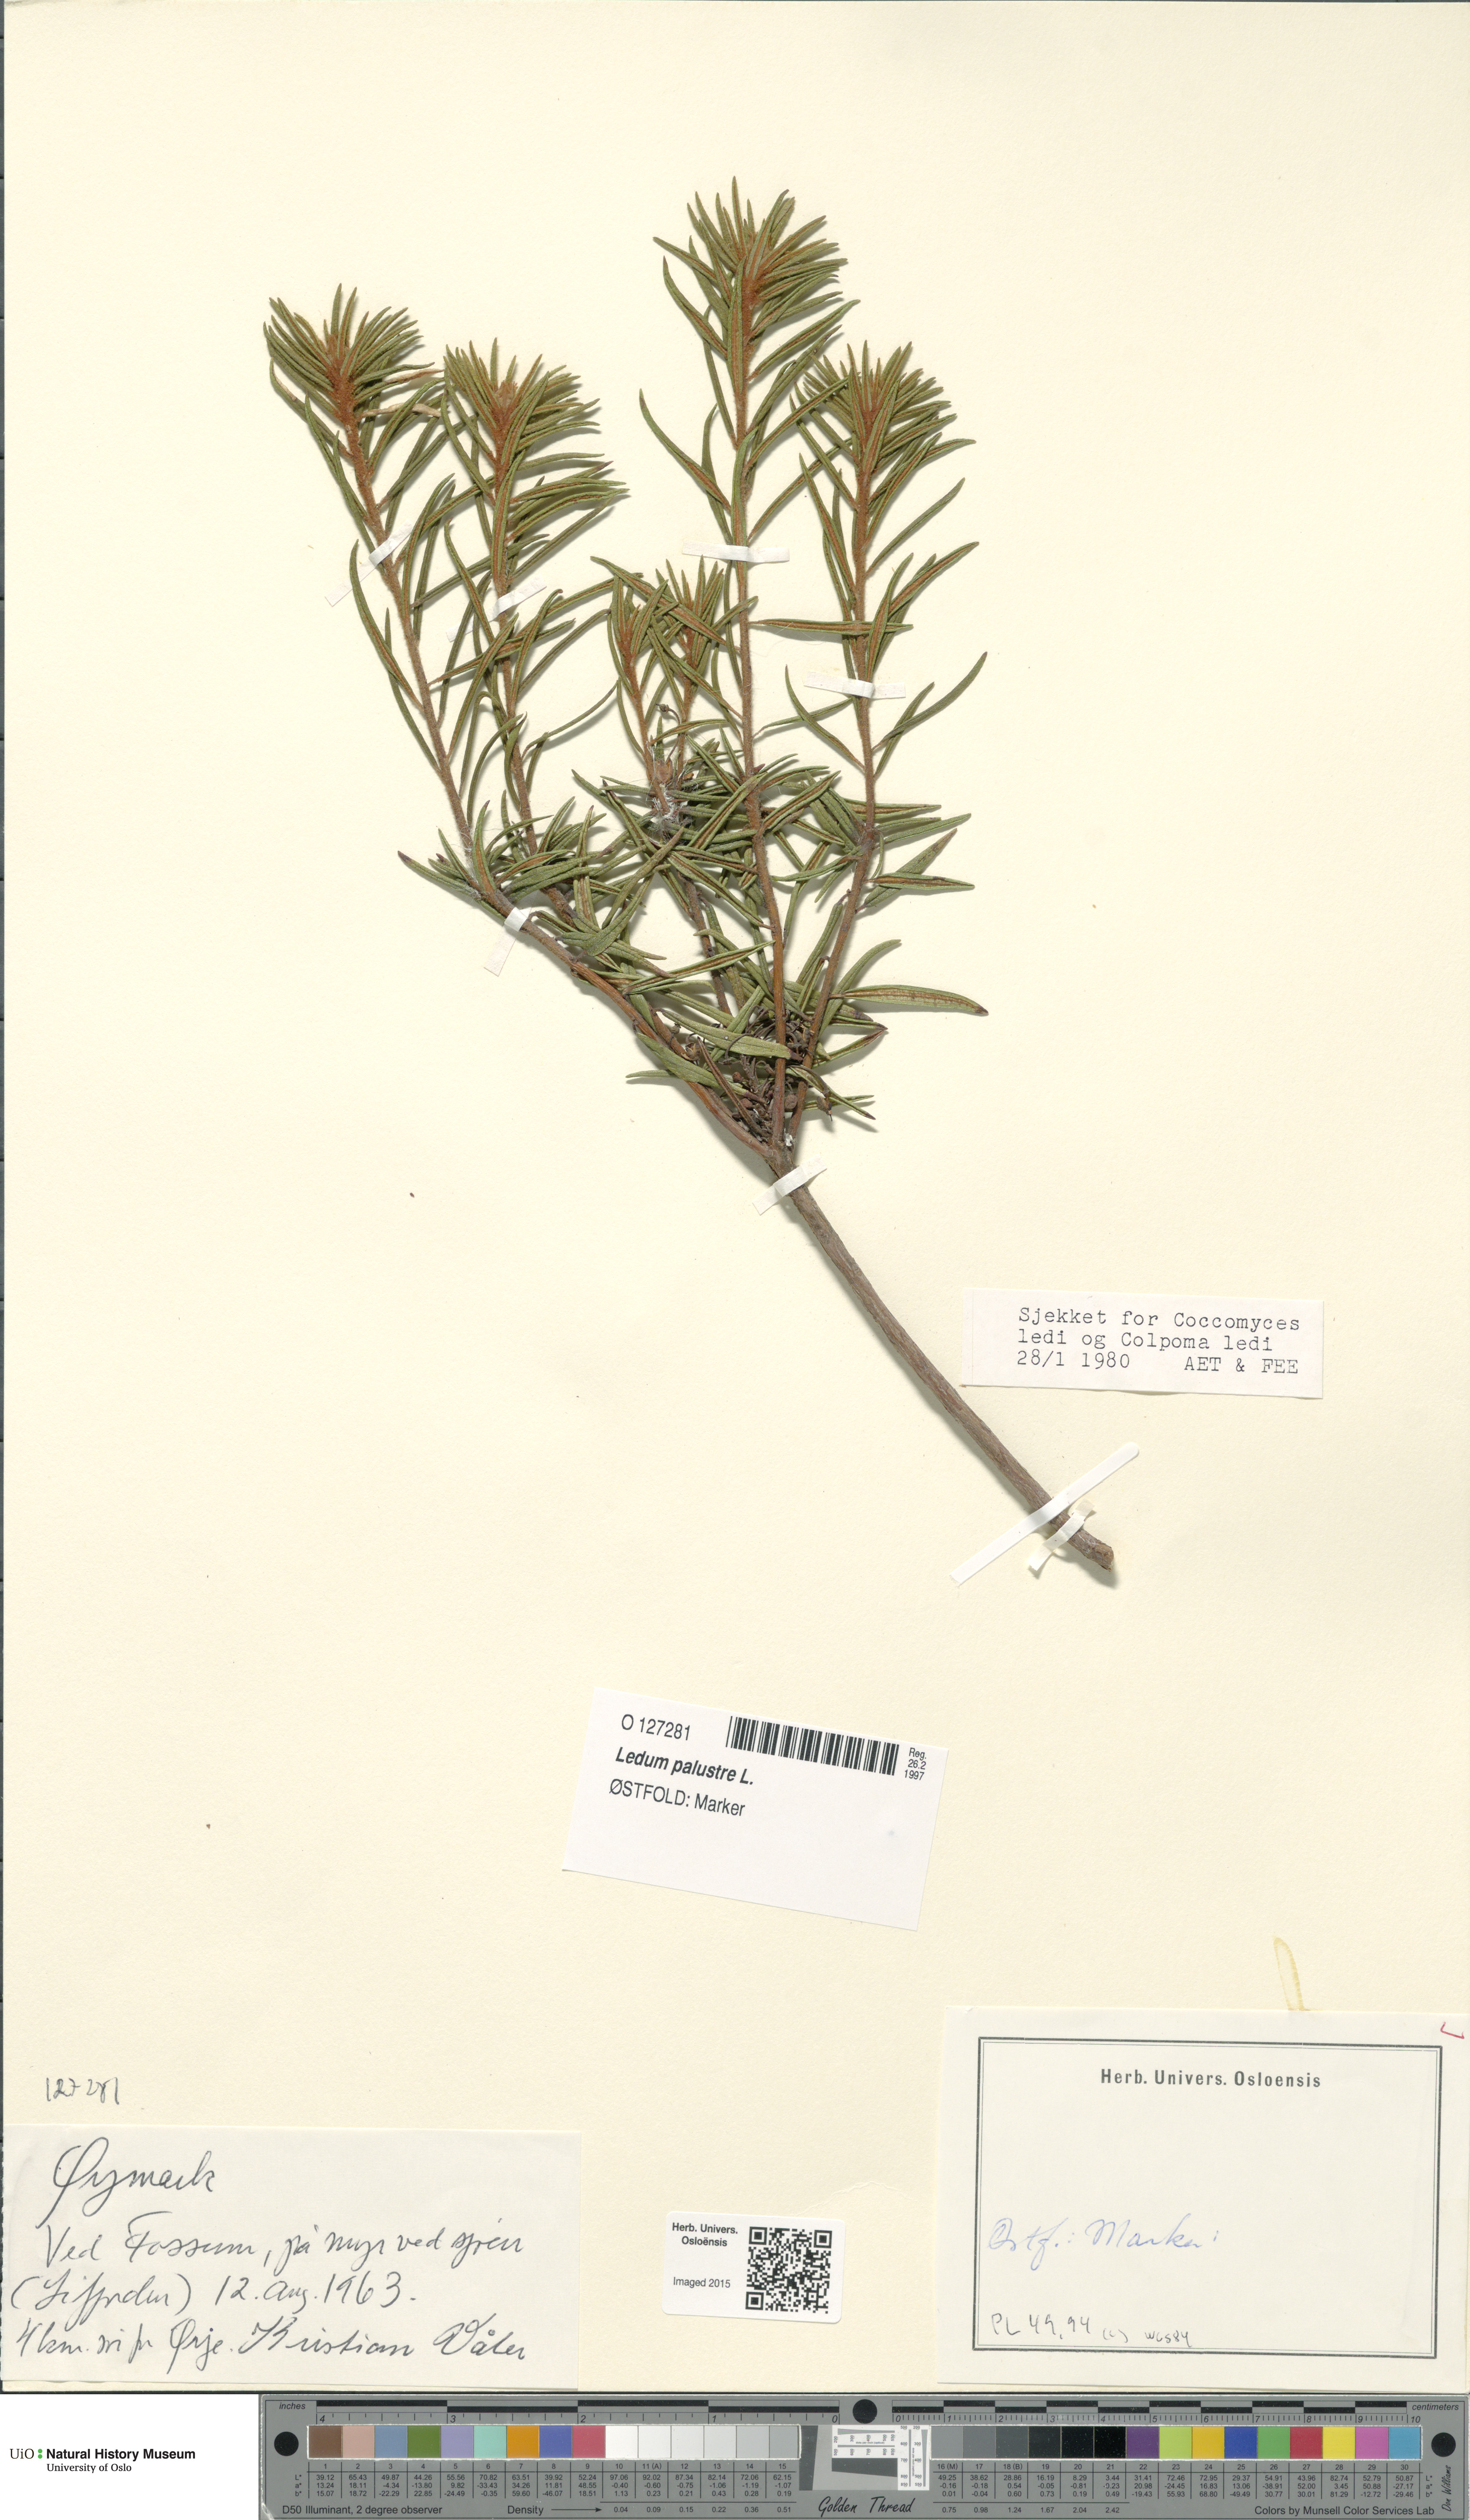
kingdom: Plantae
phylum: Tracheophyta
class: Magnoliopsida
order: Ericales
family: Ericaceae
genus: Rhododendron
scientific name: Rhododendron tomentosum
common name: Marsh labrador tea
